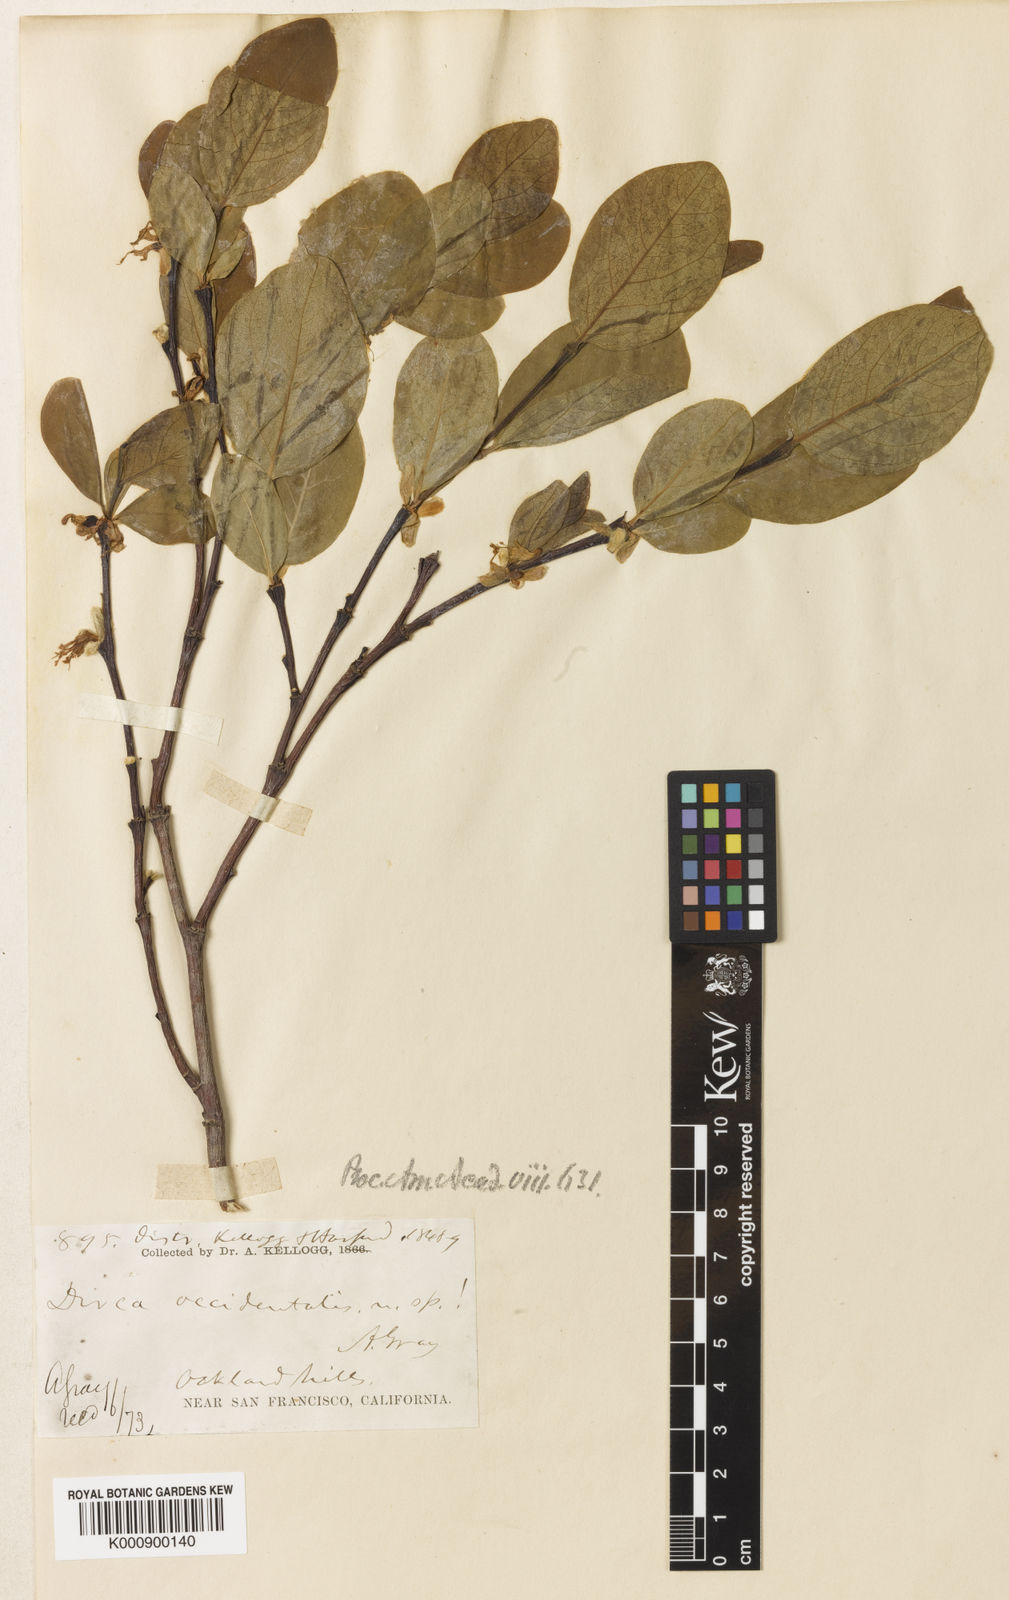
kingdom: Plantae
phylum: Tracheophyta
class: Magnoliopsida
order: Malvales
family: Thymelaeaceae
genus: Dirca
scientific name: Dirca occidentalis
